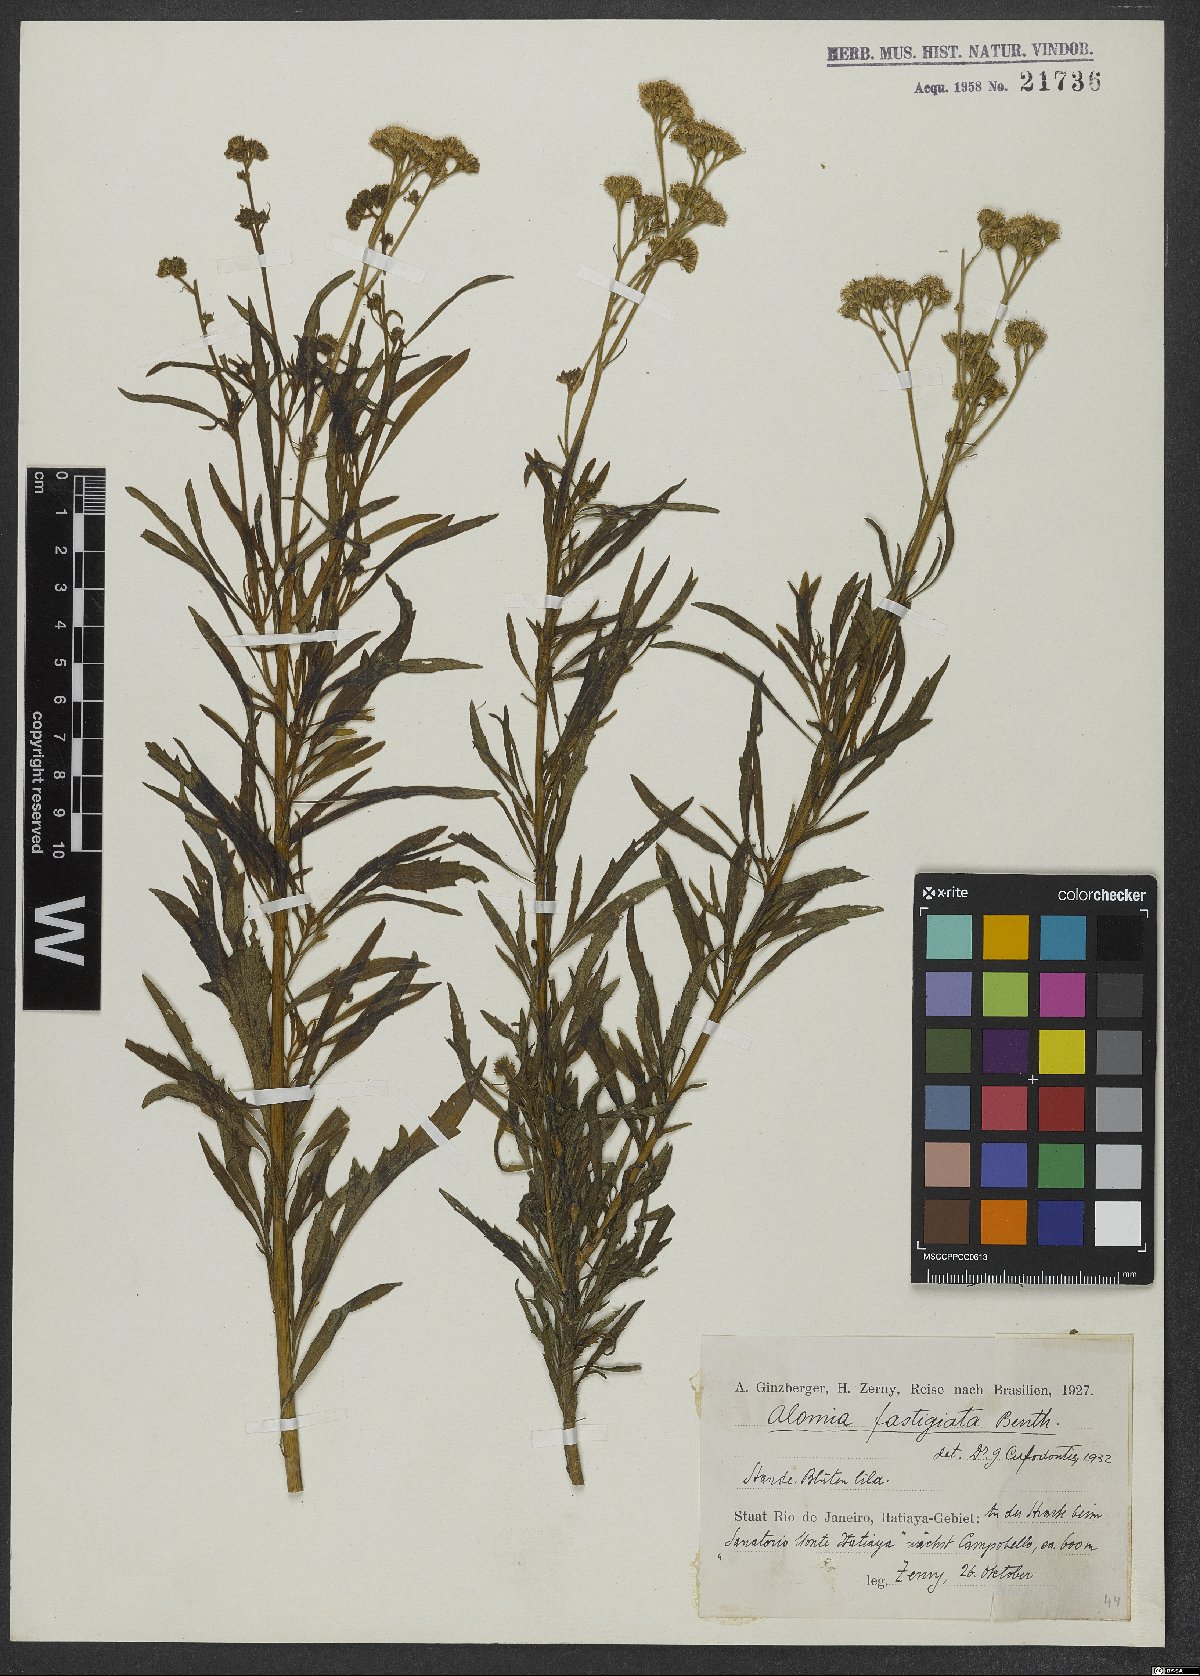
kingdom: Plantae
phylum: Tracheophyta
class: Magnoliopsida
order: Asterales
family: Asteraceae
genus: Ageratum
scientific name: Ageratum fastigiatum
